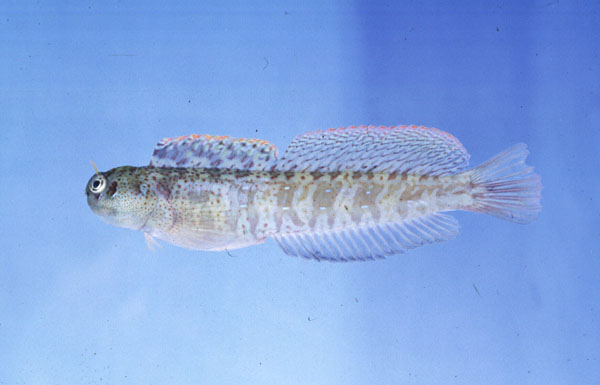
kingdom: Animalia
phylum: Chordata
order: Perciformes
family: Blenniidae
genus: Blenniella
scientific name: Blenniella periophthalmus
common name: Blue-dashed rockskipper
